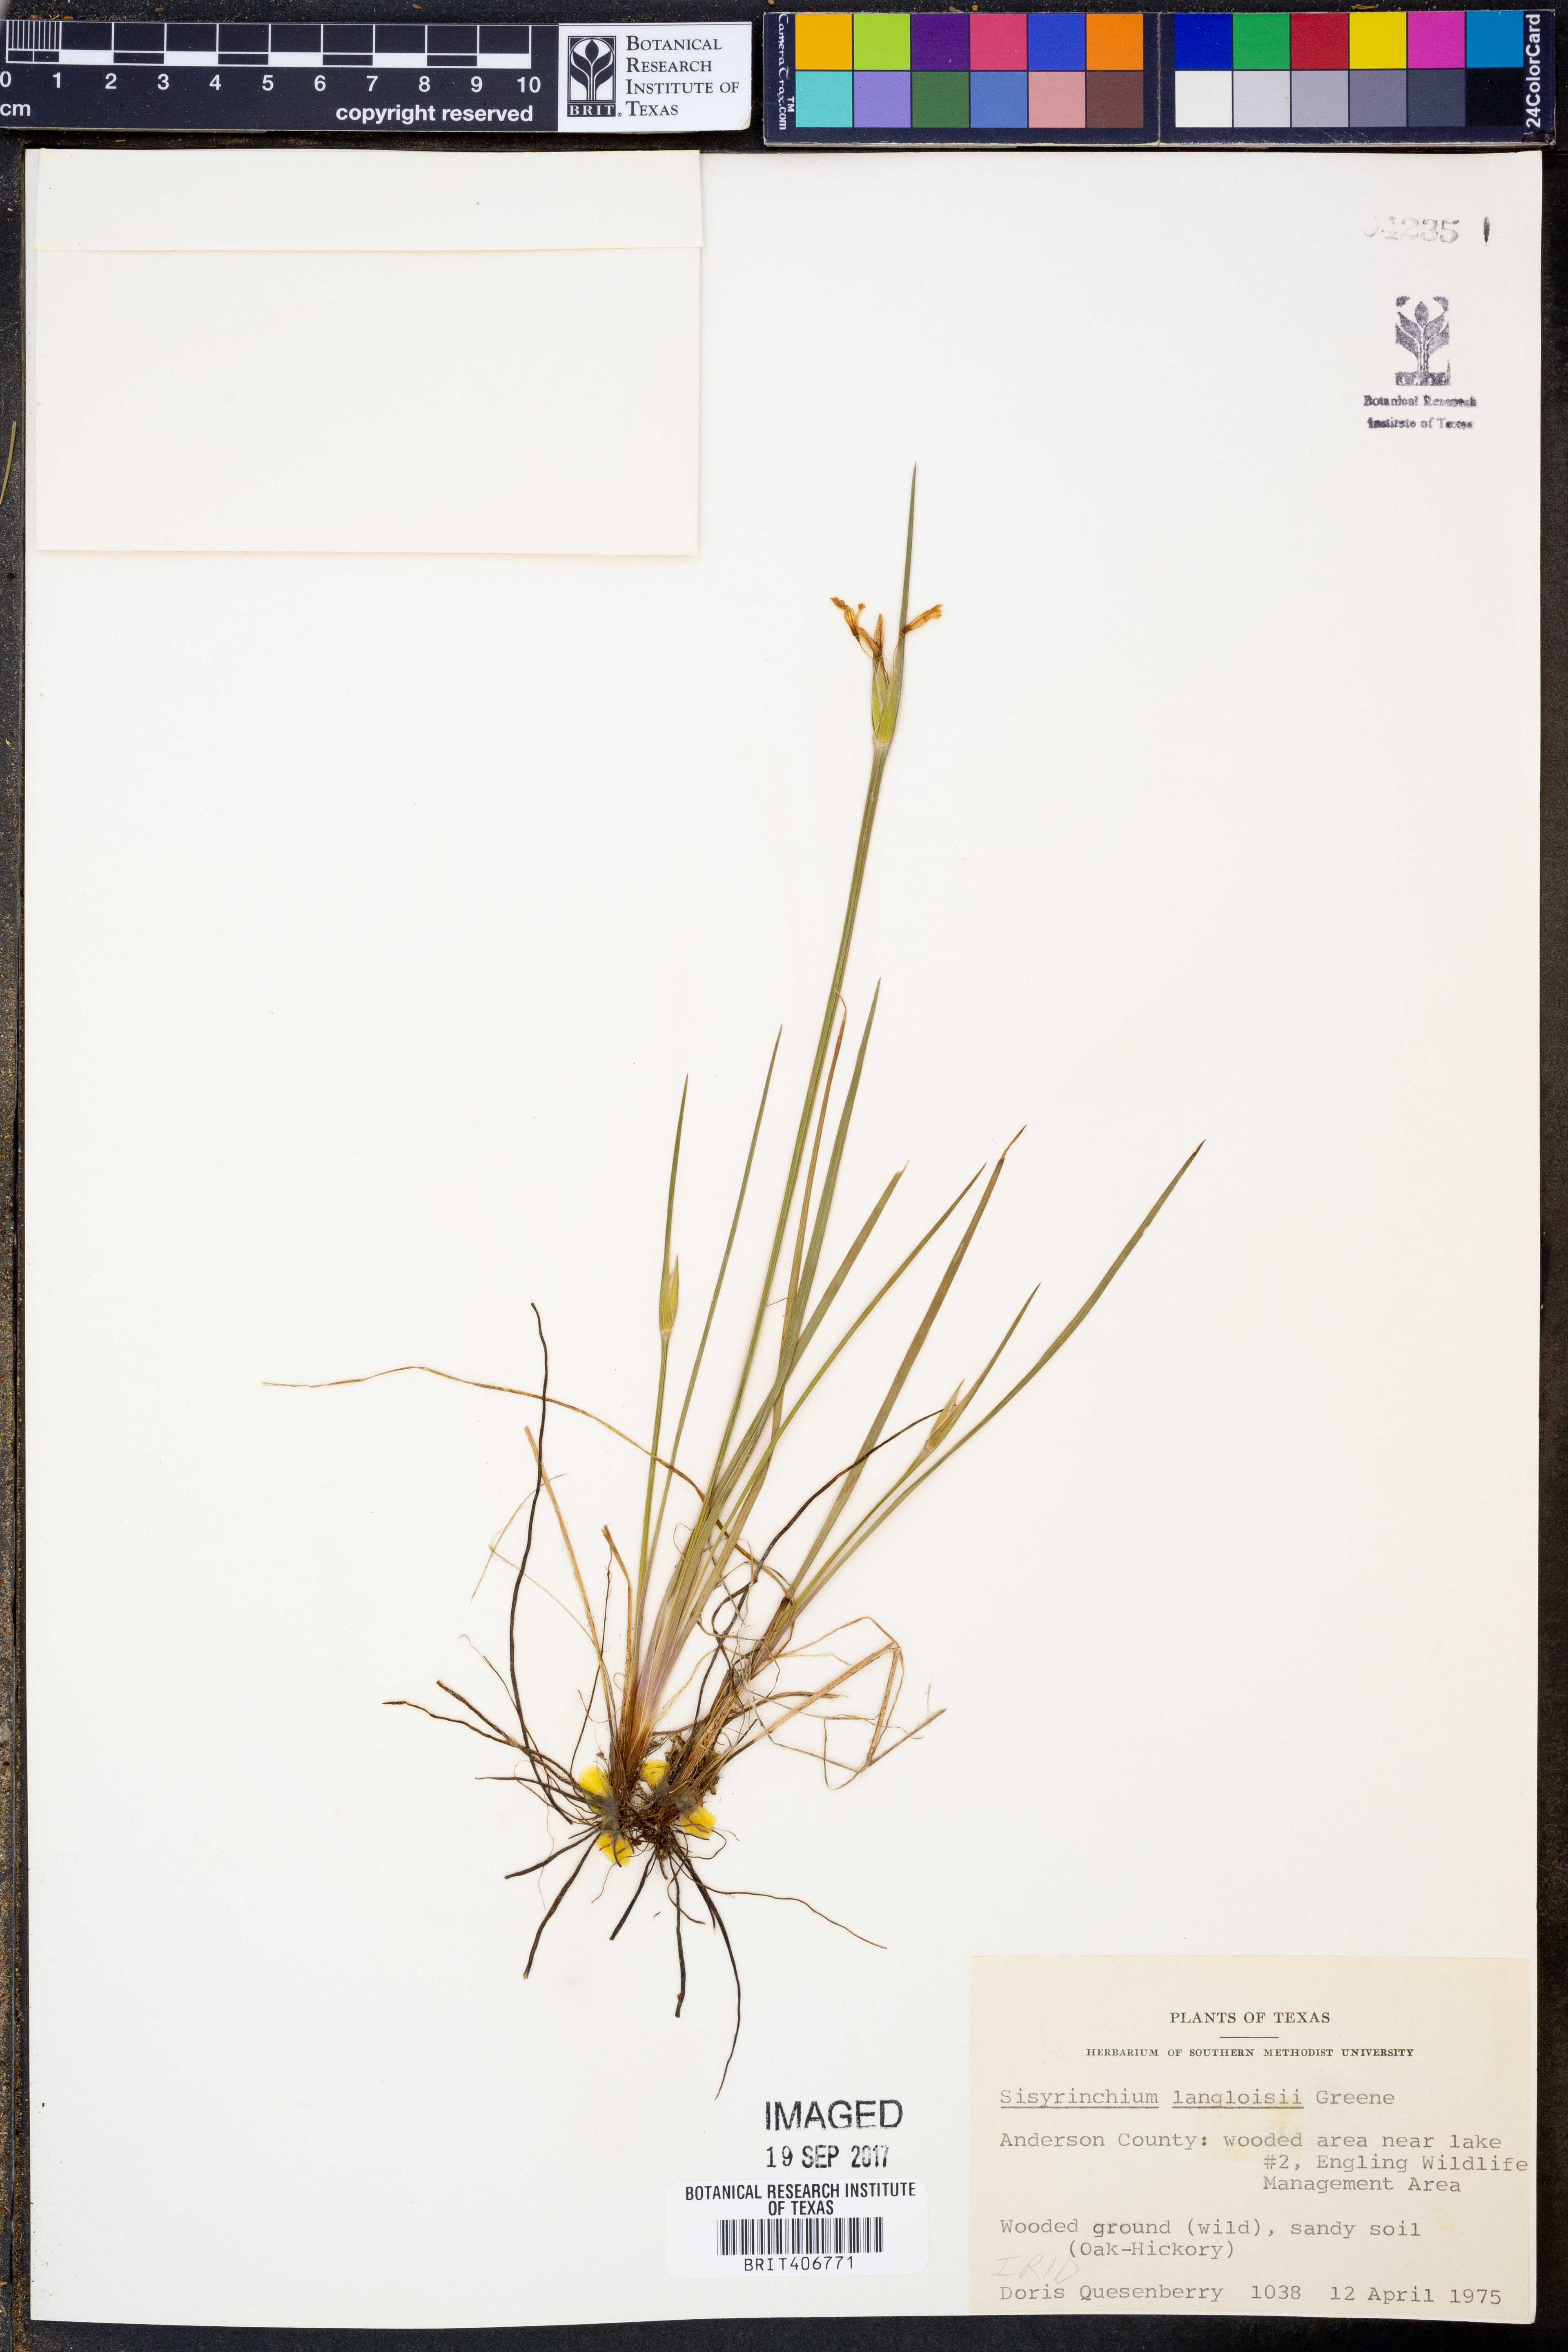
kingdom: Plantae
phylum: Tracheophyta
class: Liliopsida
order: Asparagales
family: Iridaceae
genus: Sisyrinchium
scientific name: Sisyrinchium langloisii
